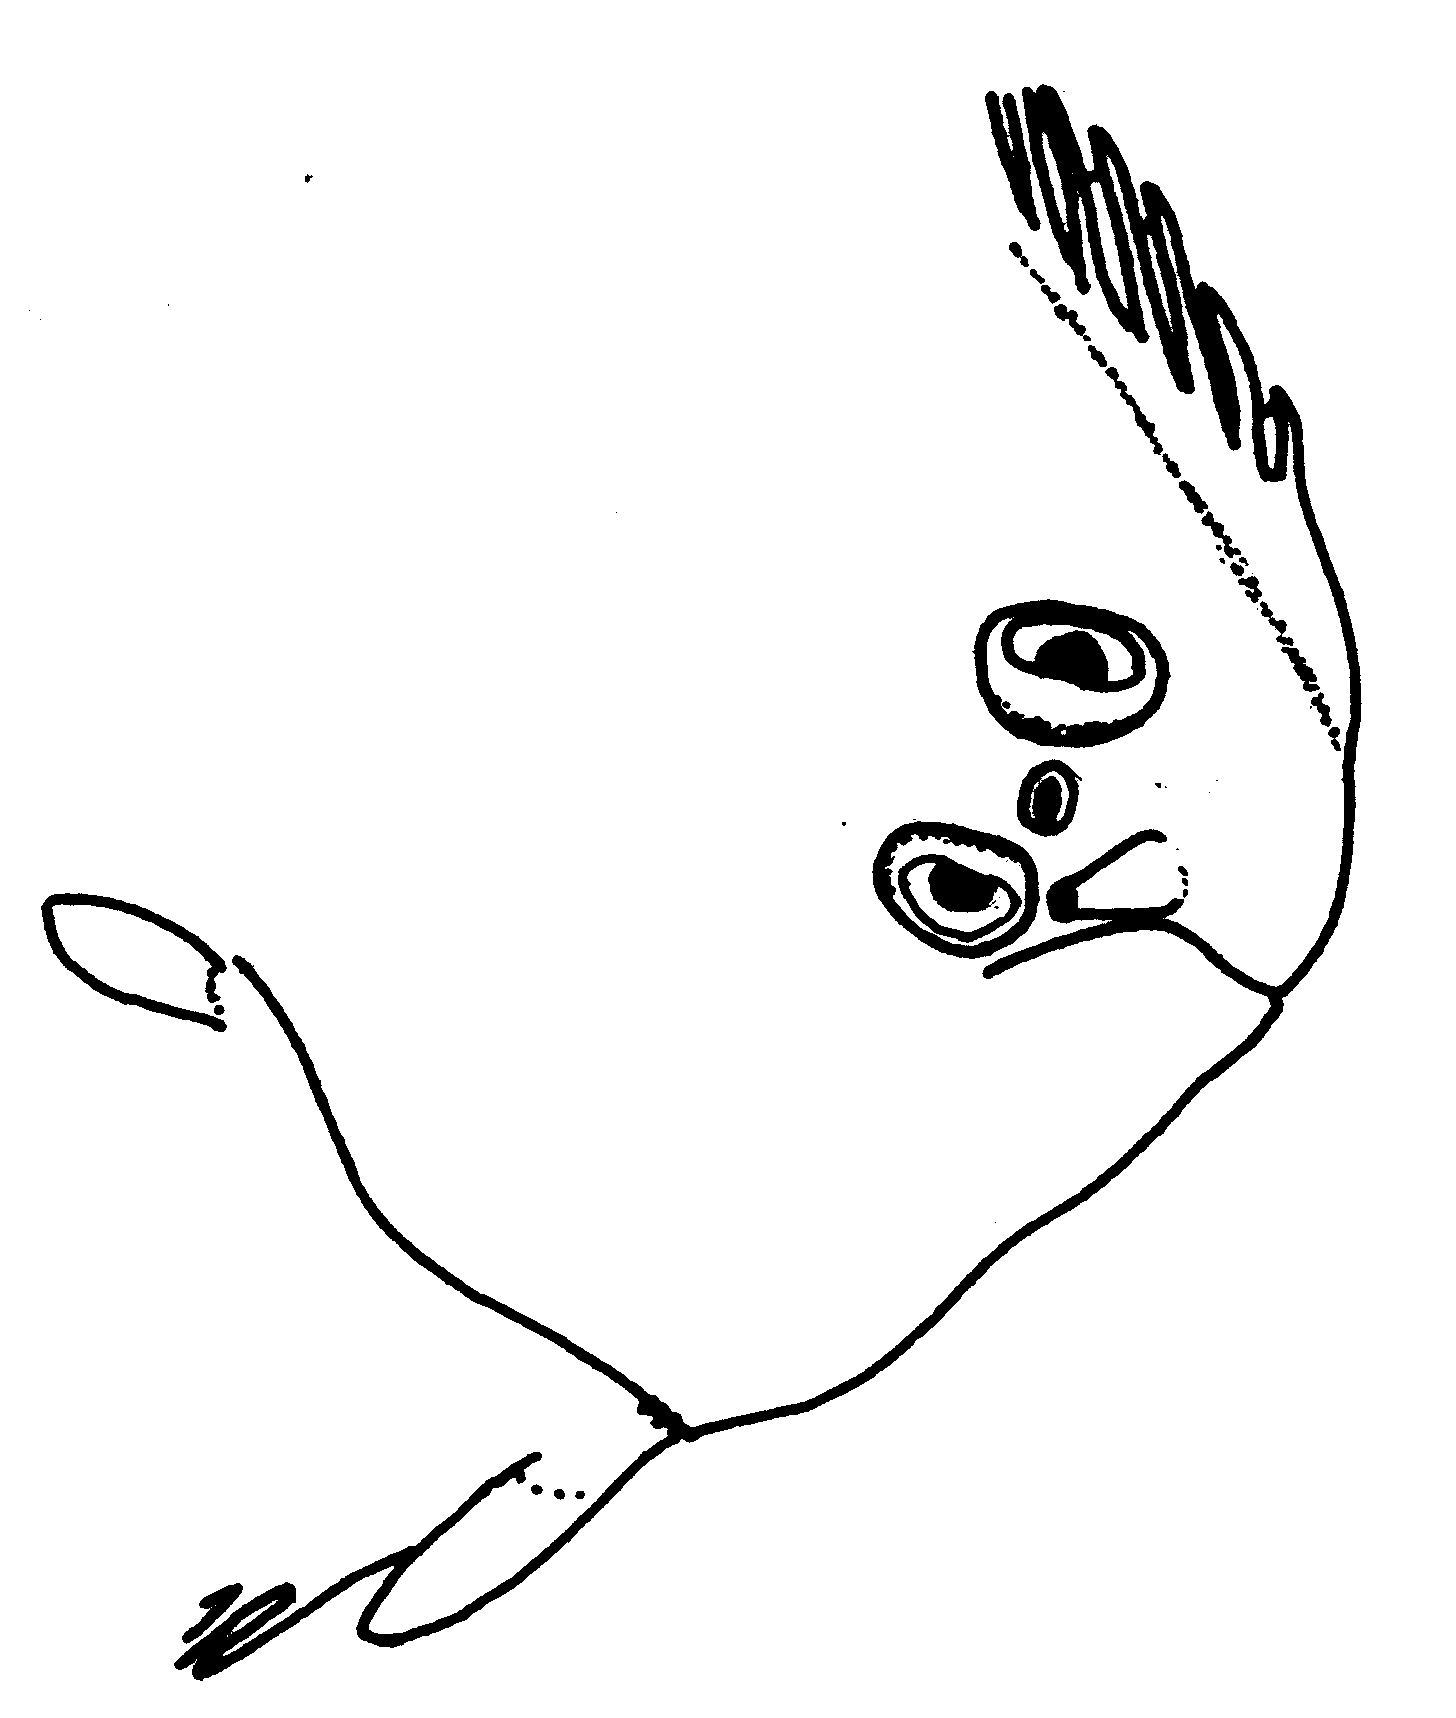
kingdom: Animalia
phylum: Chordata
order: Pleuronectiformes
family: Soleidae
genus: Barnardichthys
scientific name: Barnardichthys fulvomarginata
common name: Lemon sole
